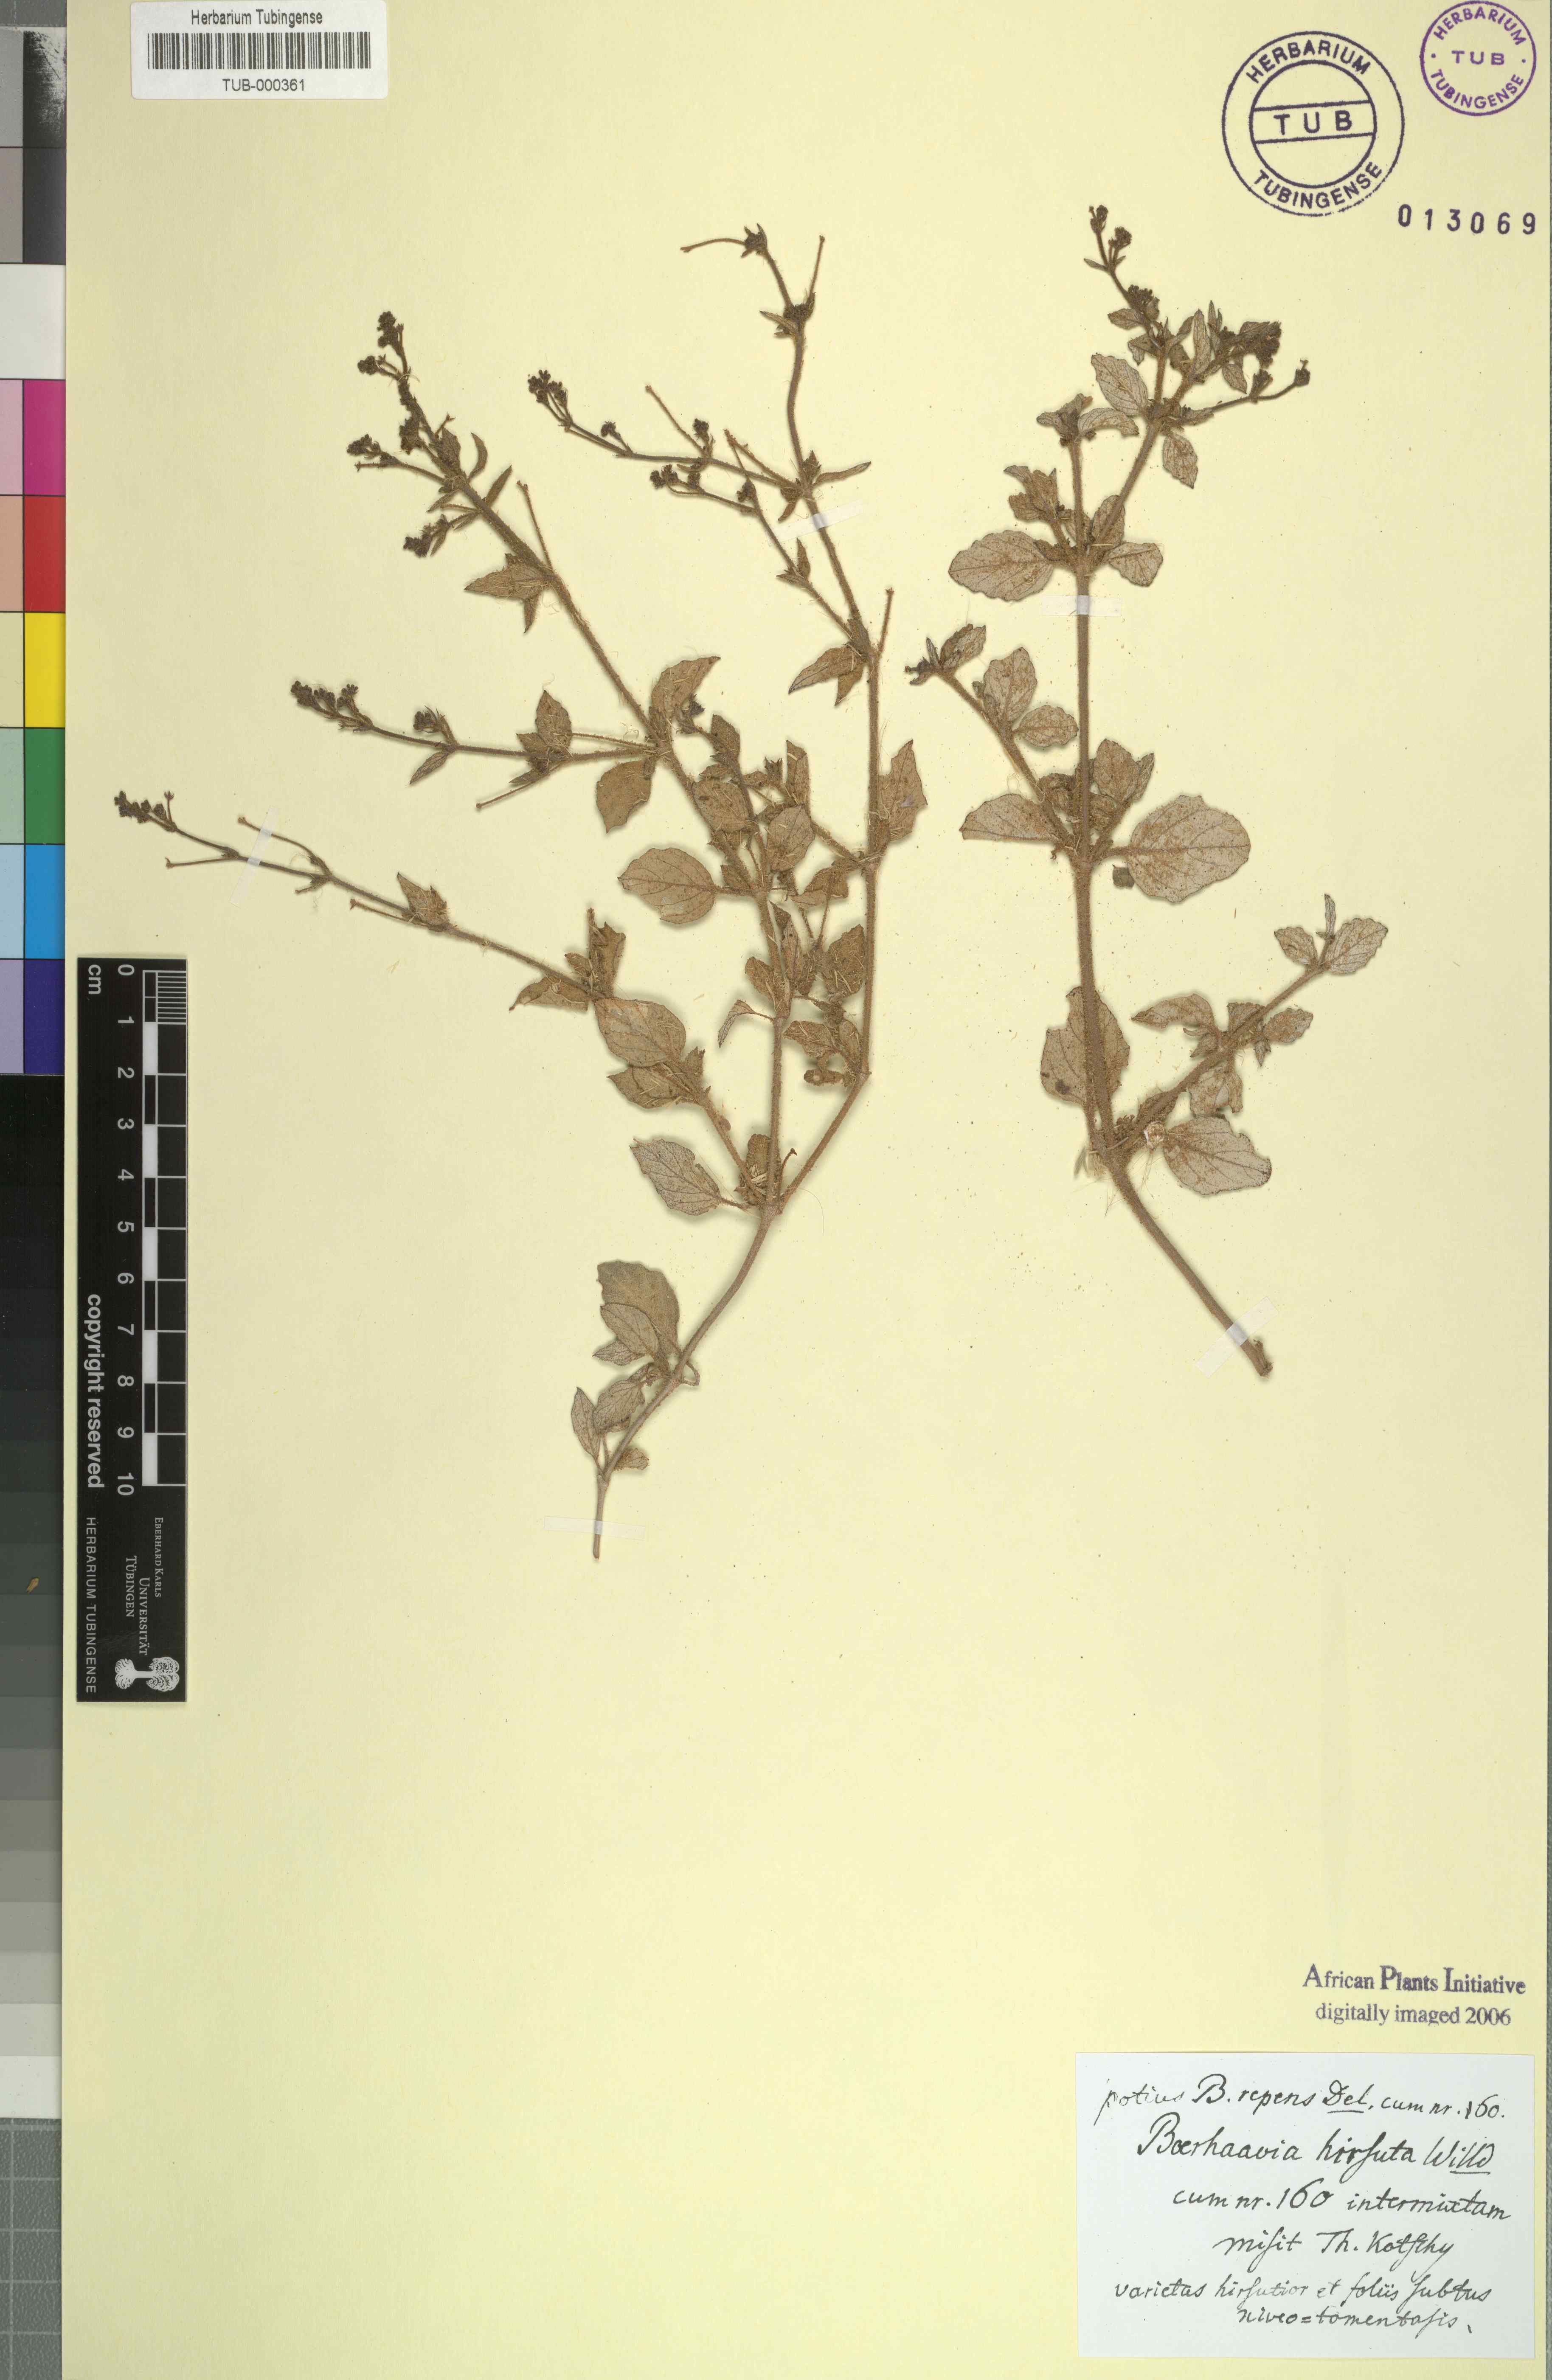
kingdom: Plantae
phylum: Tracheophyta
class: Magnoliopsida
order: Caryophyllales
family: Nyctaginaceae
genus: Boerhavia
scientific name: Boerhavia repens
